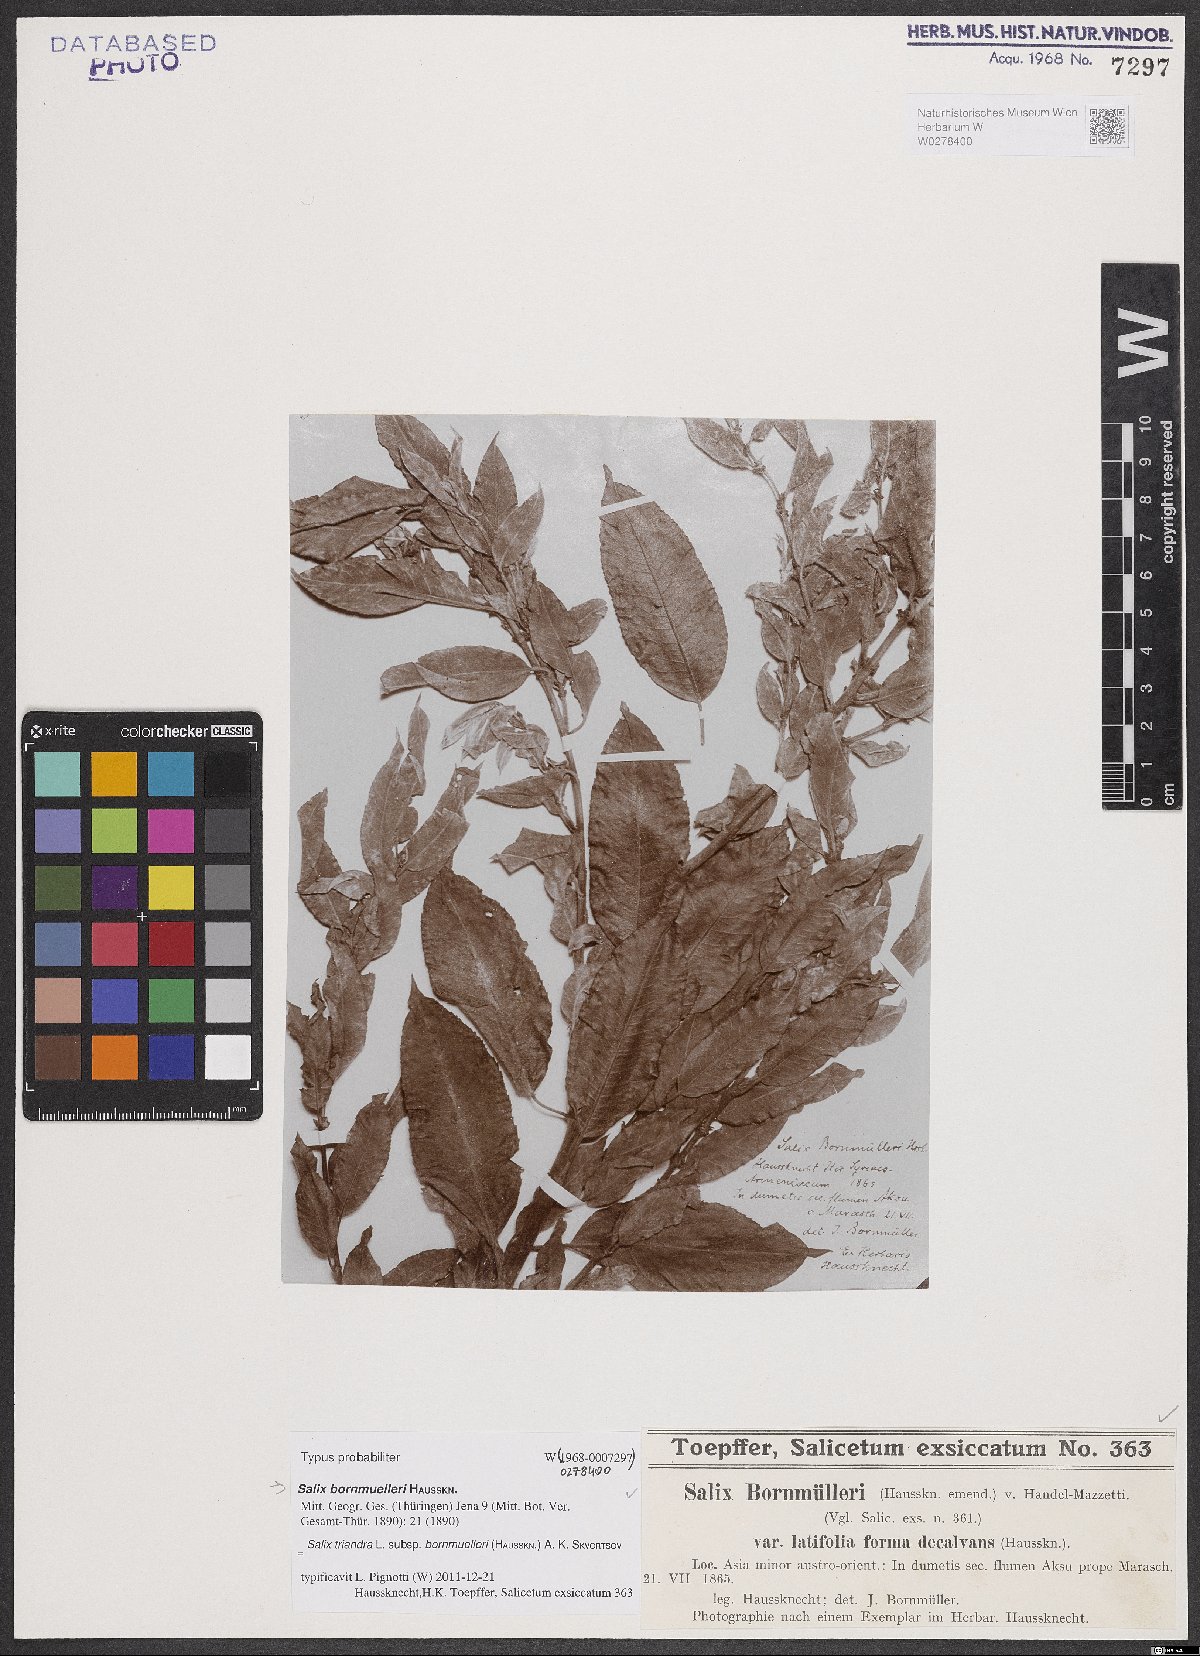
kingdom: Plantae
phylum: Tracheophyta
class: Magnoliopsida
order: Malpighiales
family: Salicaceae
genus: Salix
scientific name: Salix triandra
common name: Almond willow
